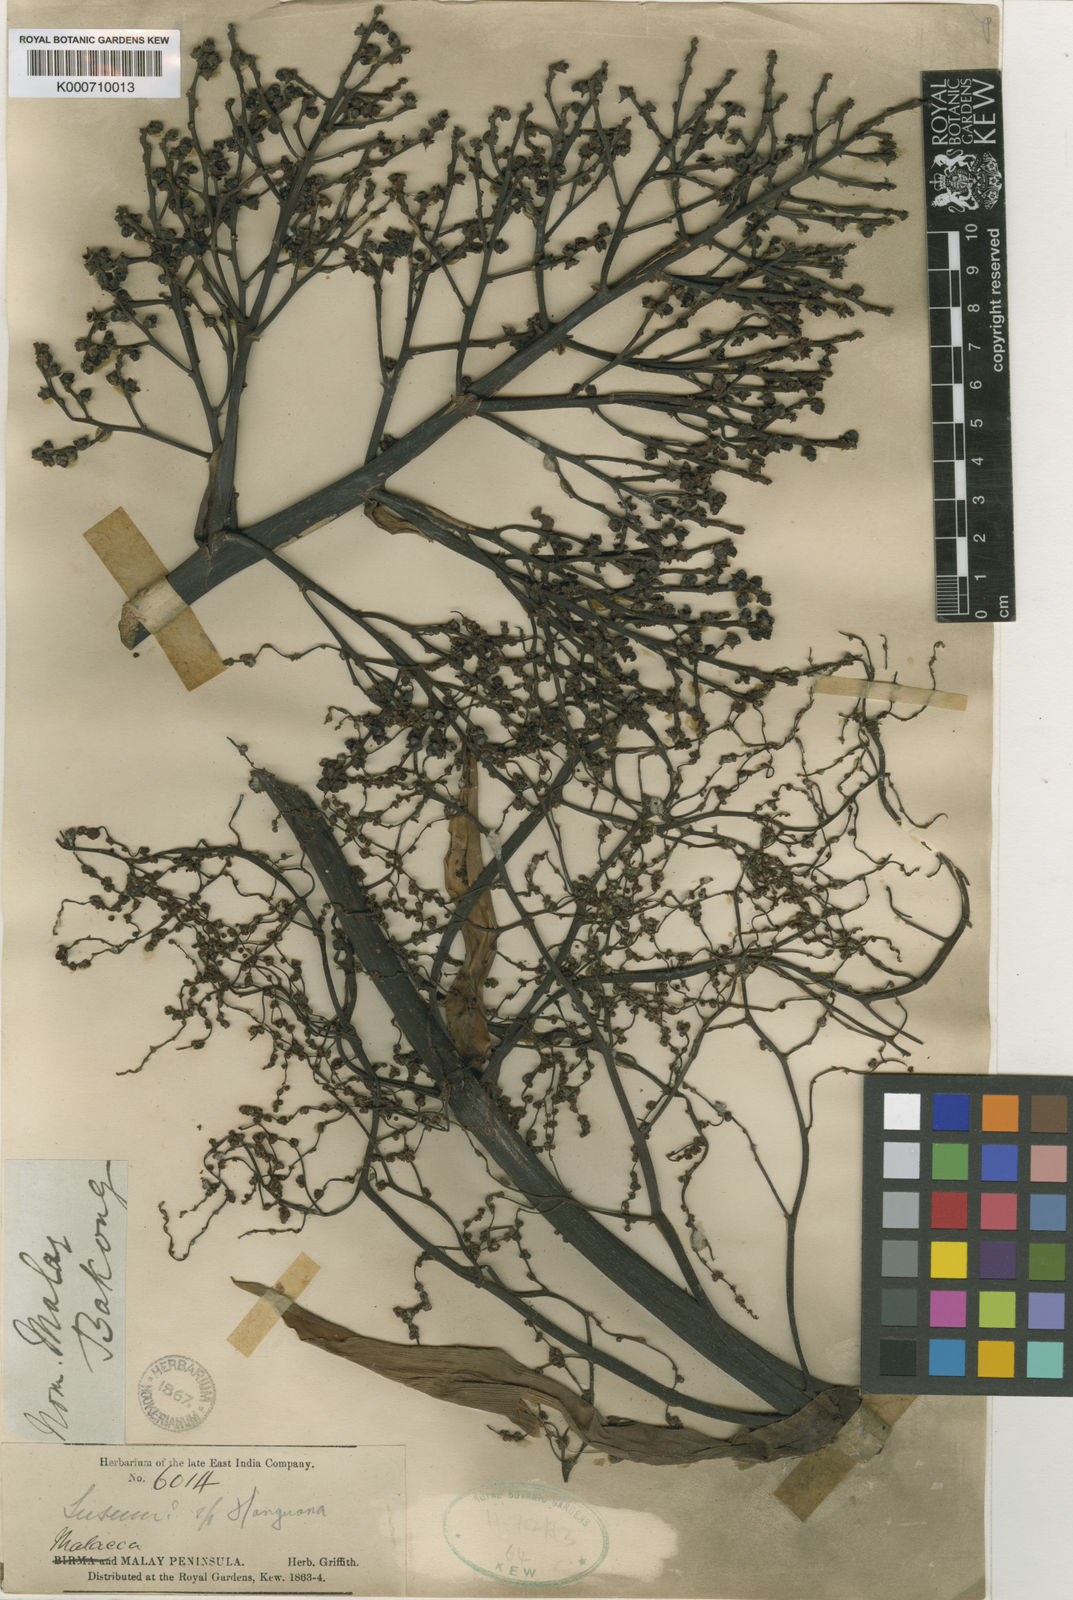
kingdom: Plantae
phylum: Tracheophyta
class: Liliopsida
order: Commelinales
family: Hanguanaceae
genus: Hanguana
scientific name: Hanguana malayana
